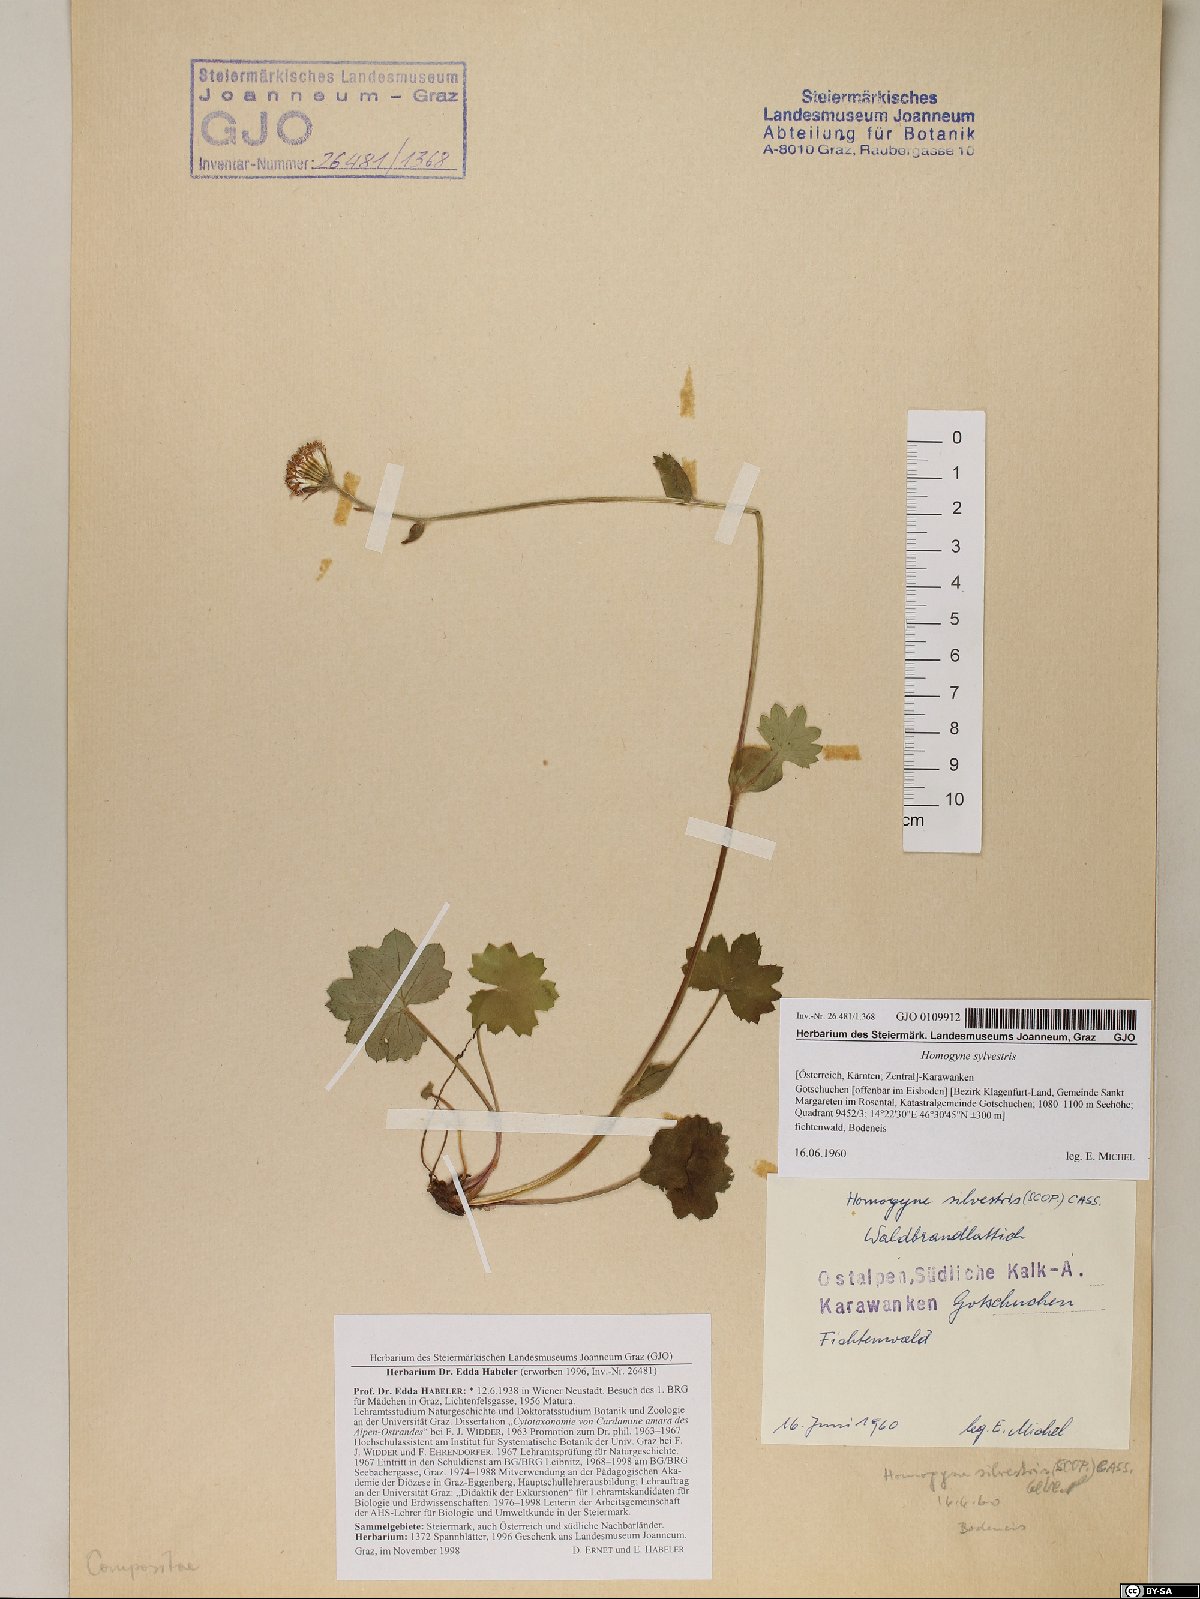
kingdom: Plantae
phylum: Tracheophyta
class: Magnoliopsida
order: Asterales
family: Asteraceae
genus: Homogyne
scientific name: Homogyne sylvestris
